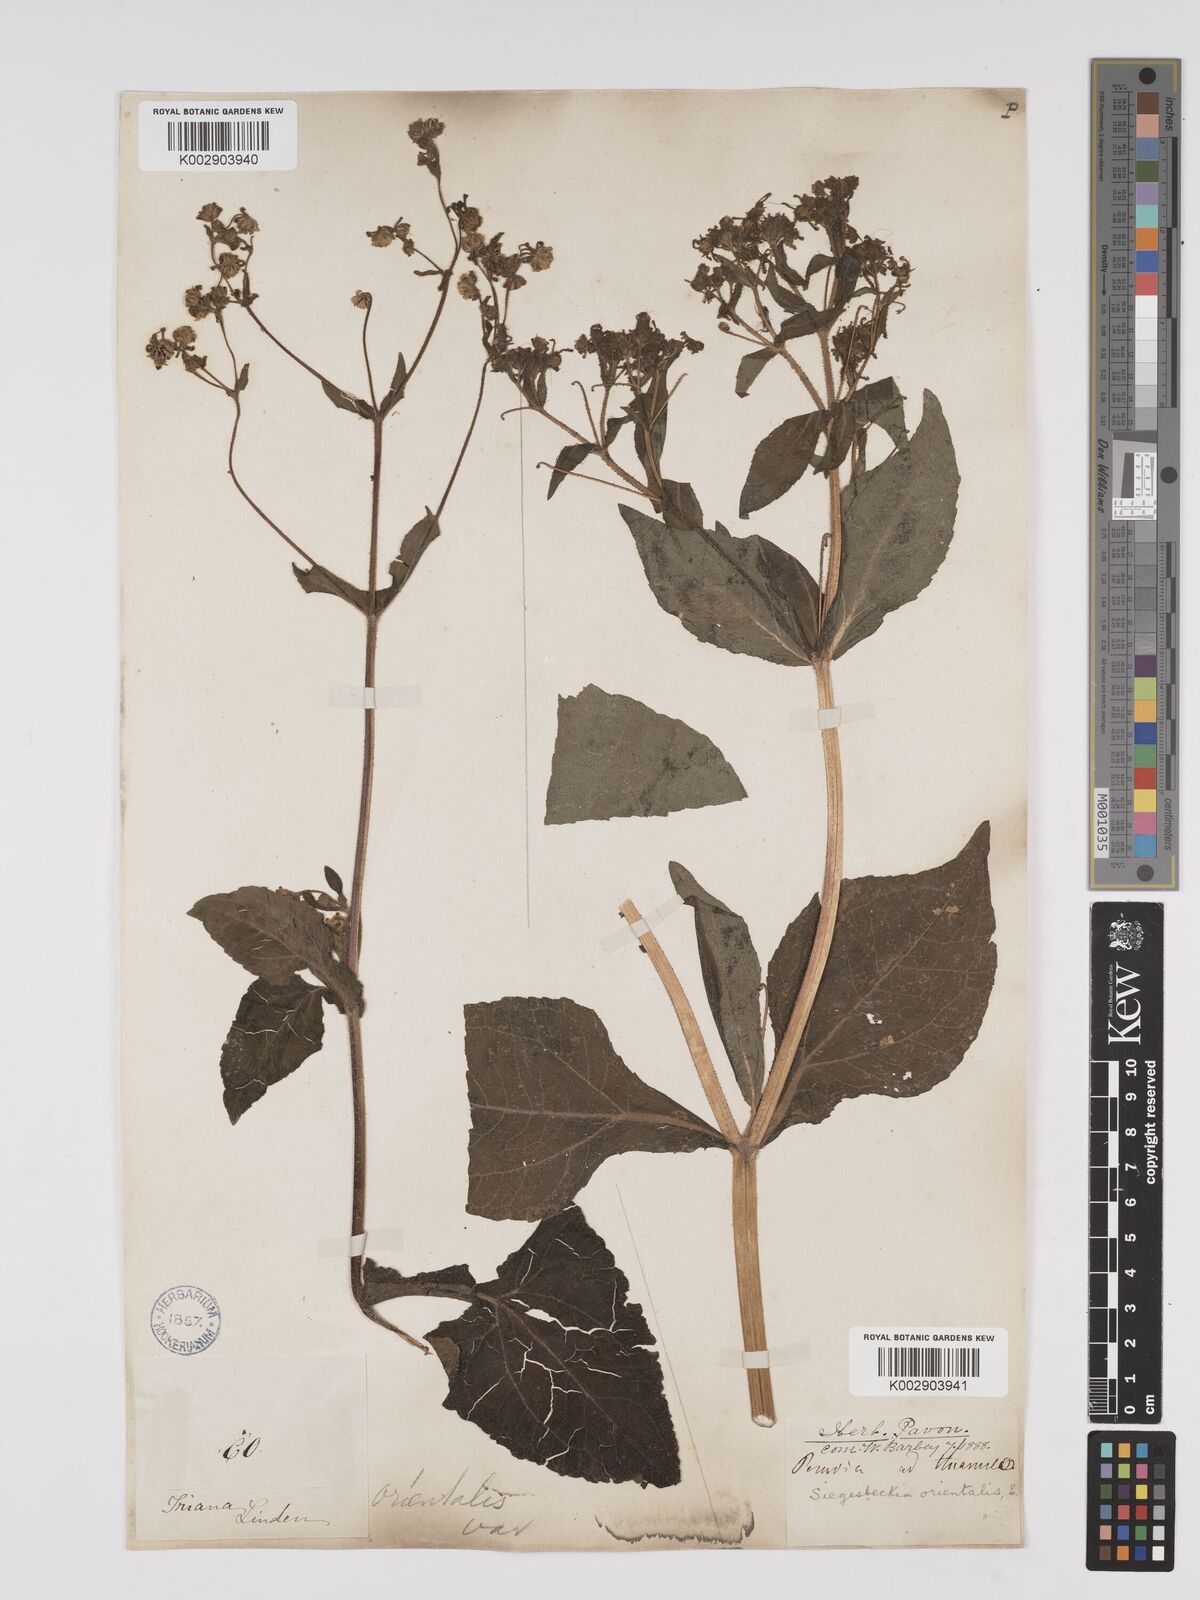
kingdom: Plantae
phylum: Tracheophyta
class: Magnoliopsida
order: Asterales
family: Asteraceae
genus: Sigesbeckia
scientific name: Sigesbeckia orientalis
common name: Eastern st paul's-wort
